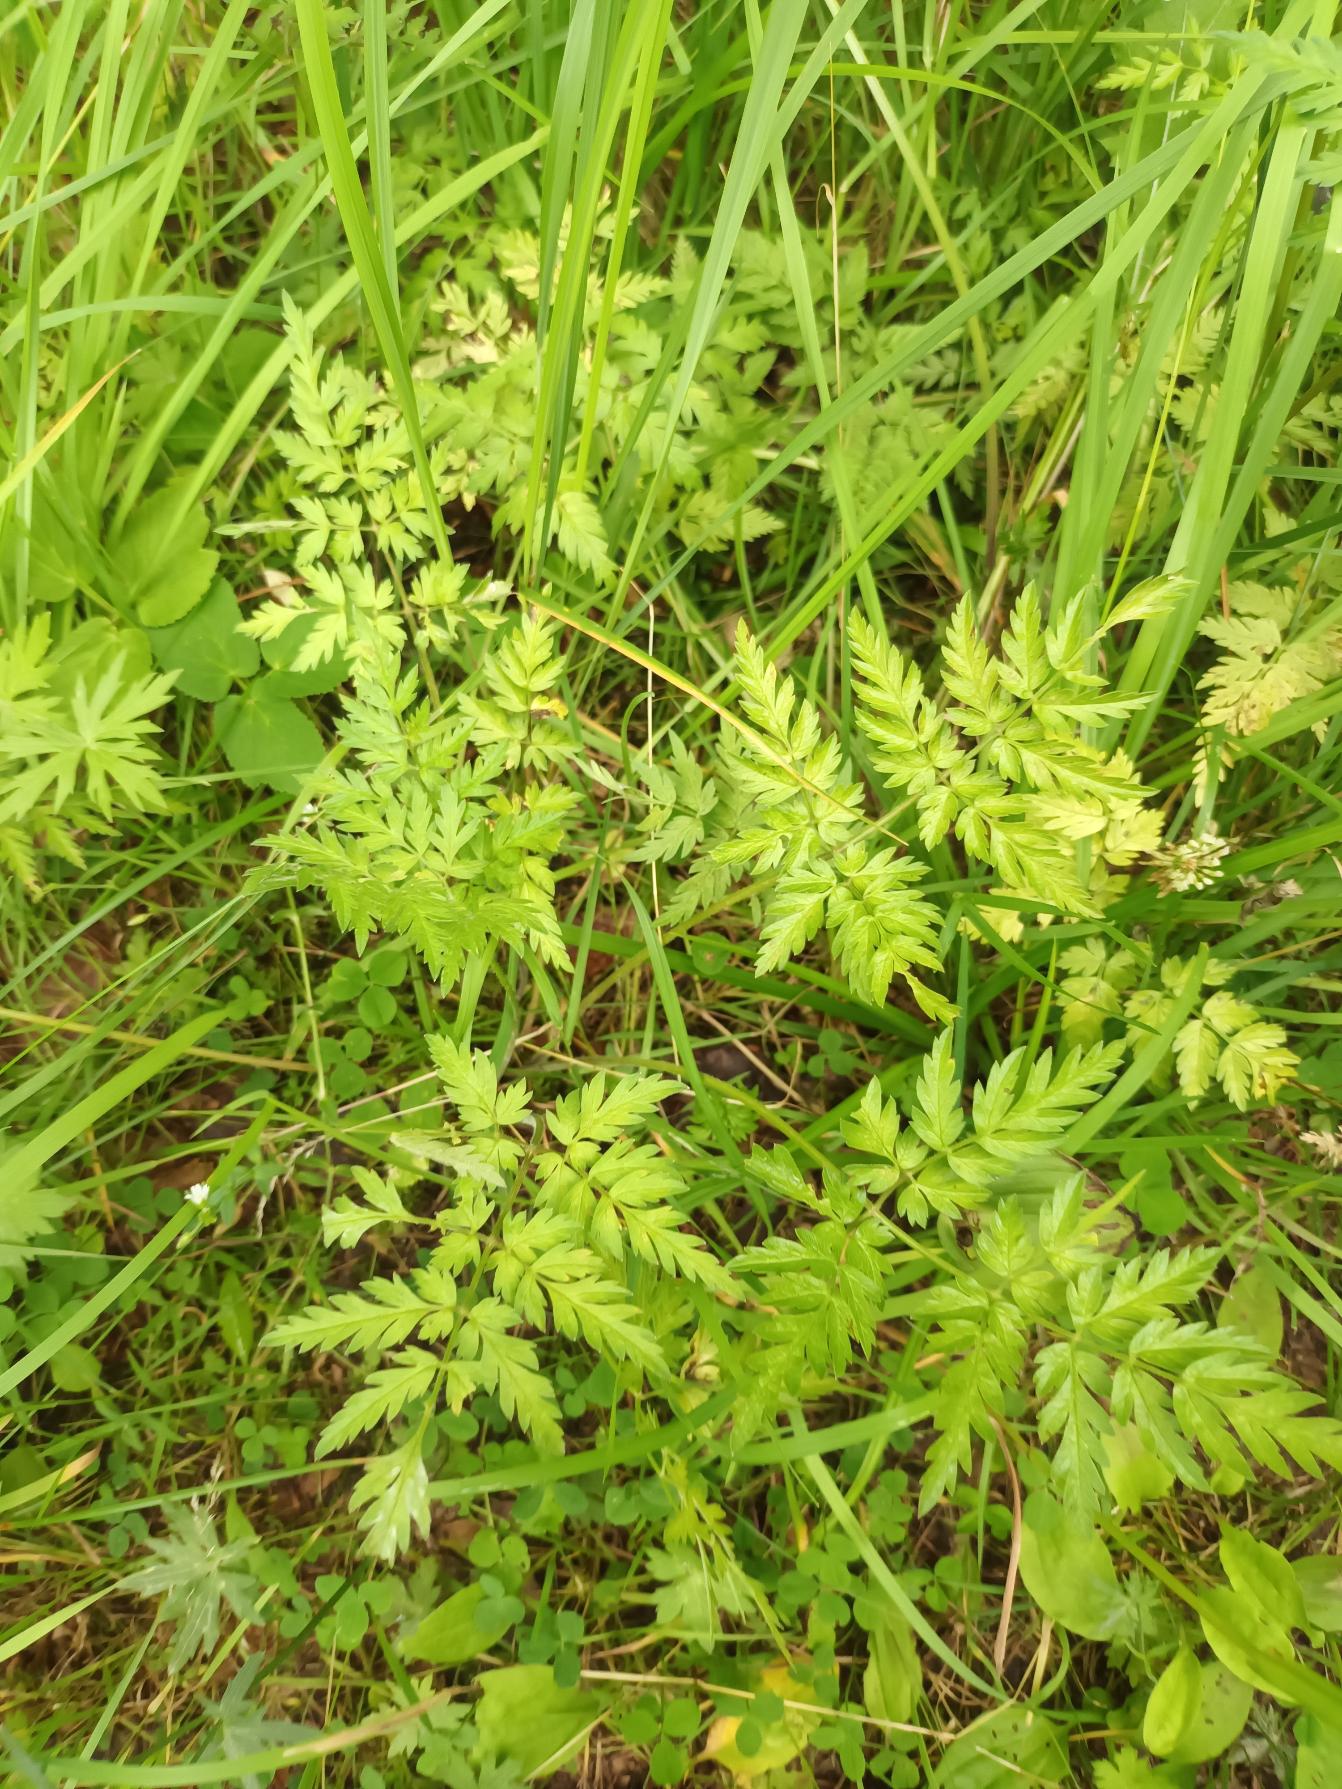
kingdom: Plantae
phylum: Tracheophyta
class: Magnoliopsida
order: Apiales
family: Apiaceae
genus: Anthriscus
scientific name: Anthriscus sylvestris
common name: Vild kørvel
